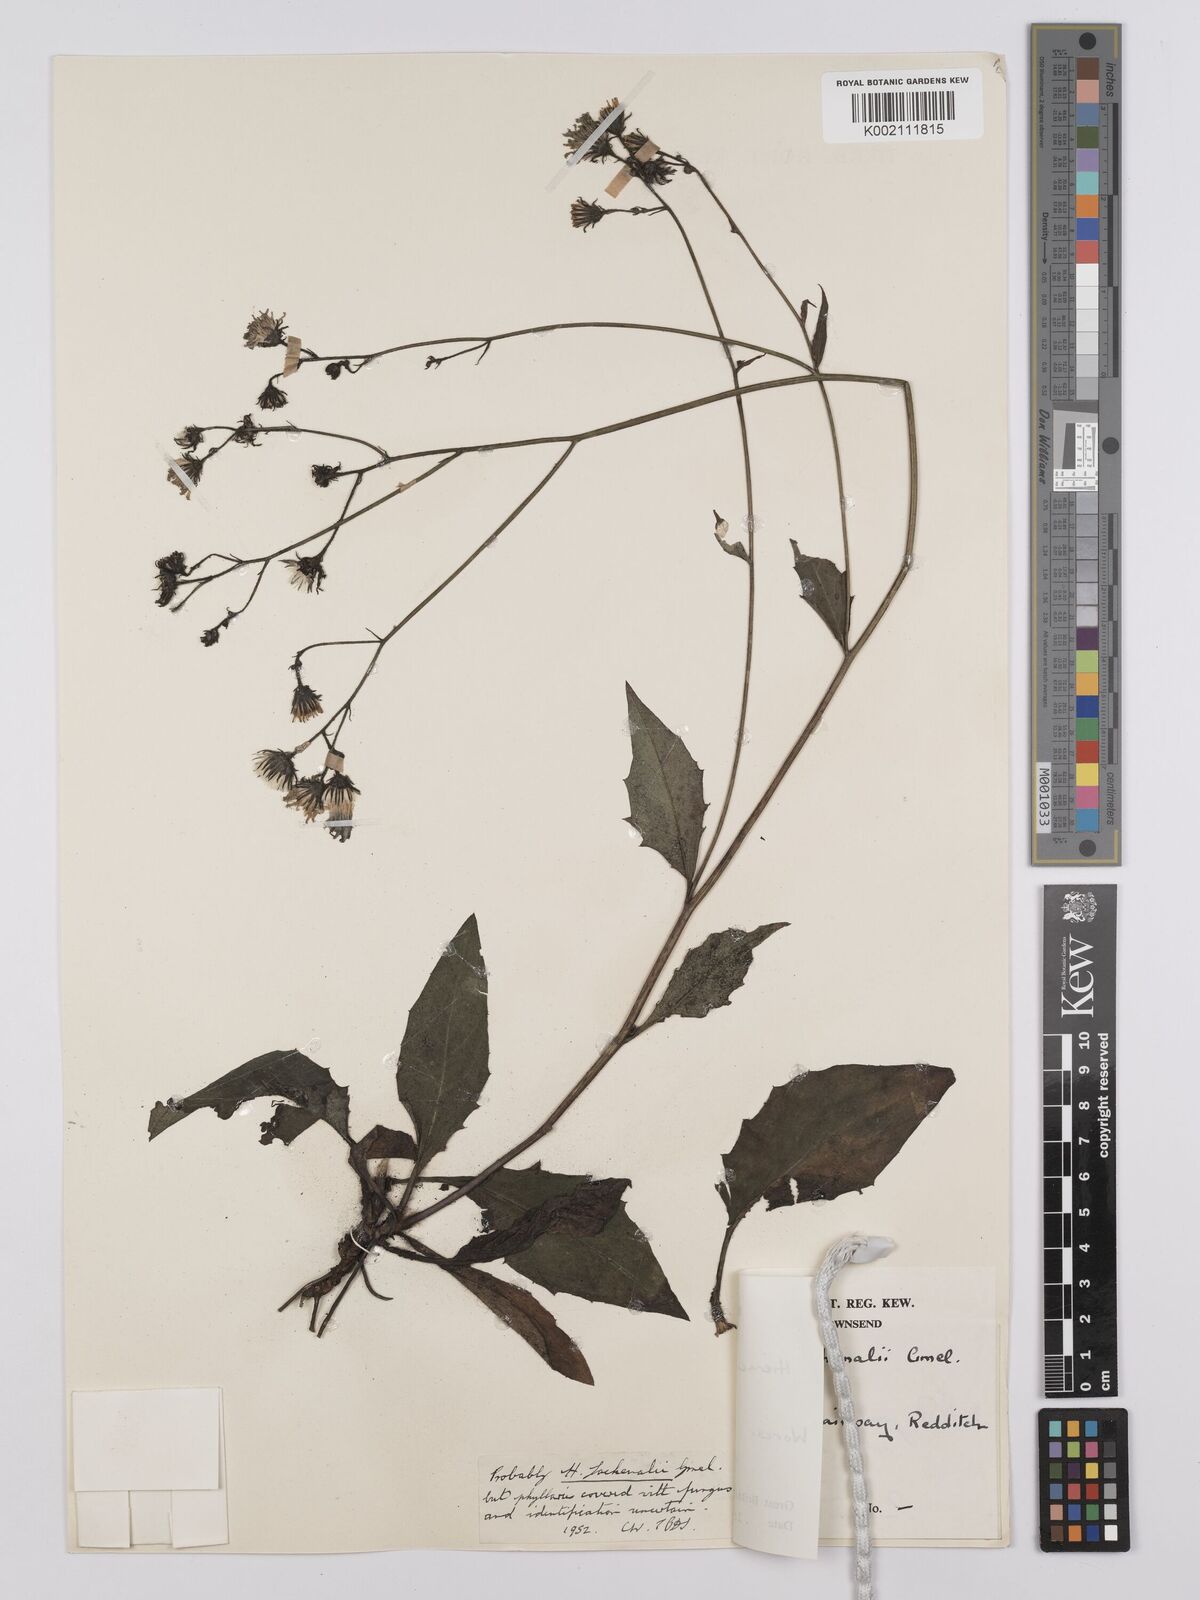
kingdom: Plantae
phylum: Tracheophyta
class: Magnoliopsida
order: Asterales
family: Asteraceae
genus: Hieracium
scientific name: Hieracium lachenalii
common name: Common hawkweed
